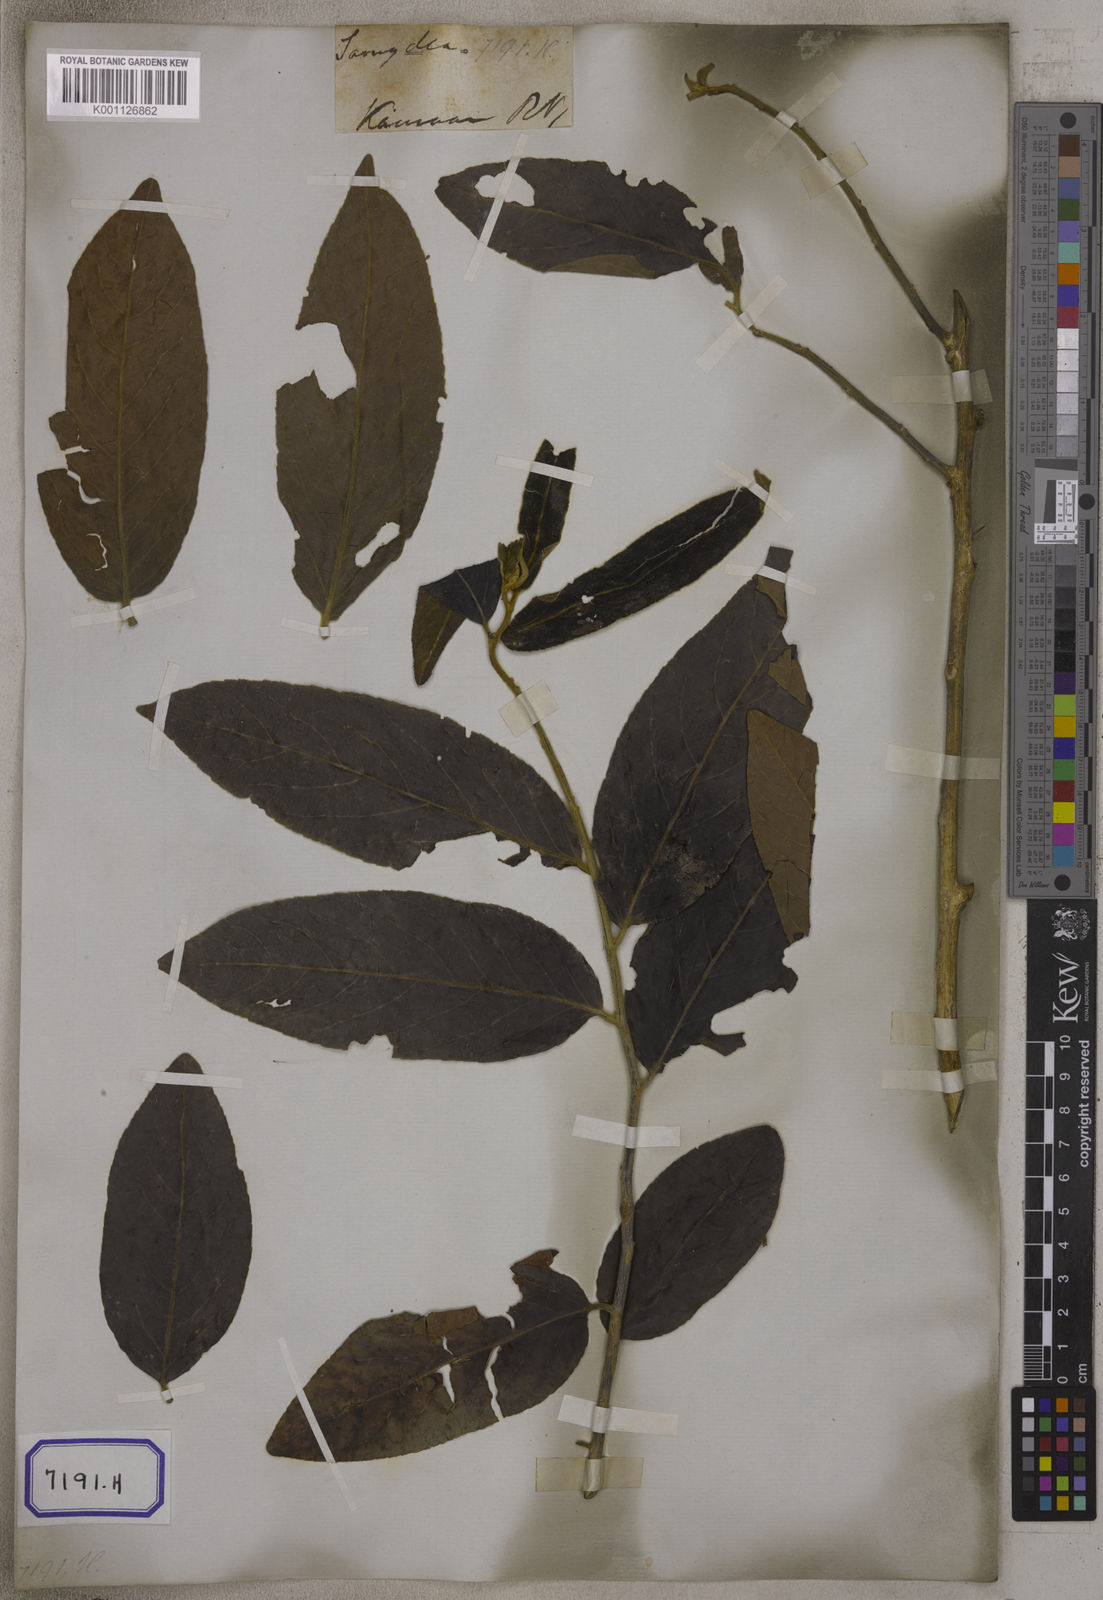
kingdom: Plantae
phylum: Tracheophyta
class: Magnoliopsida
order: Malpighiales
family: Salicaceae
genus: Casearia
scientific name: Casearia tomentosa
